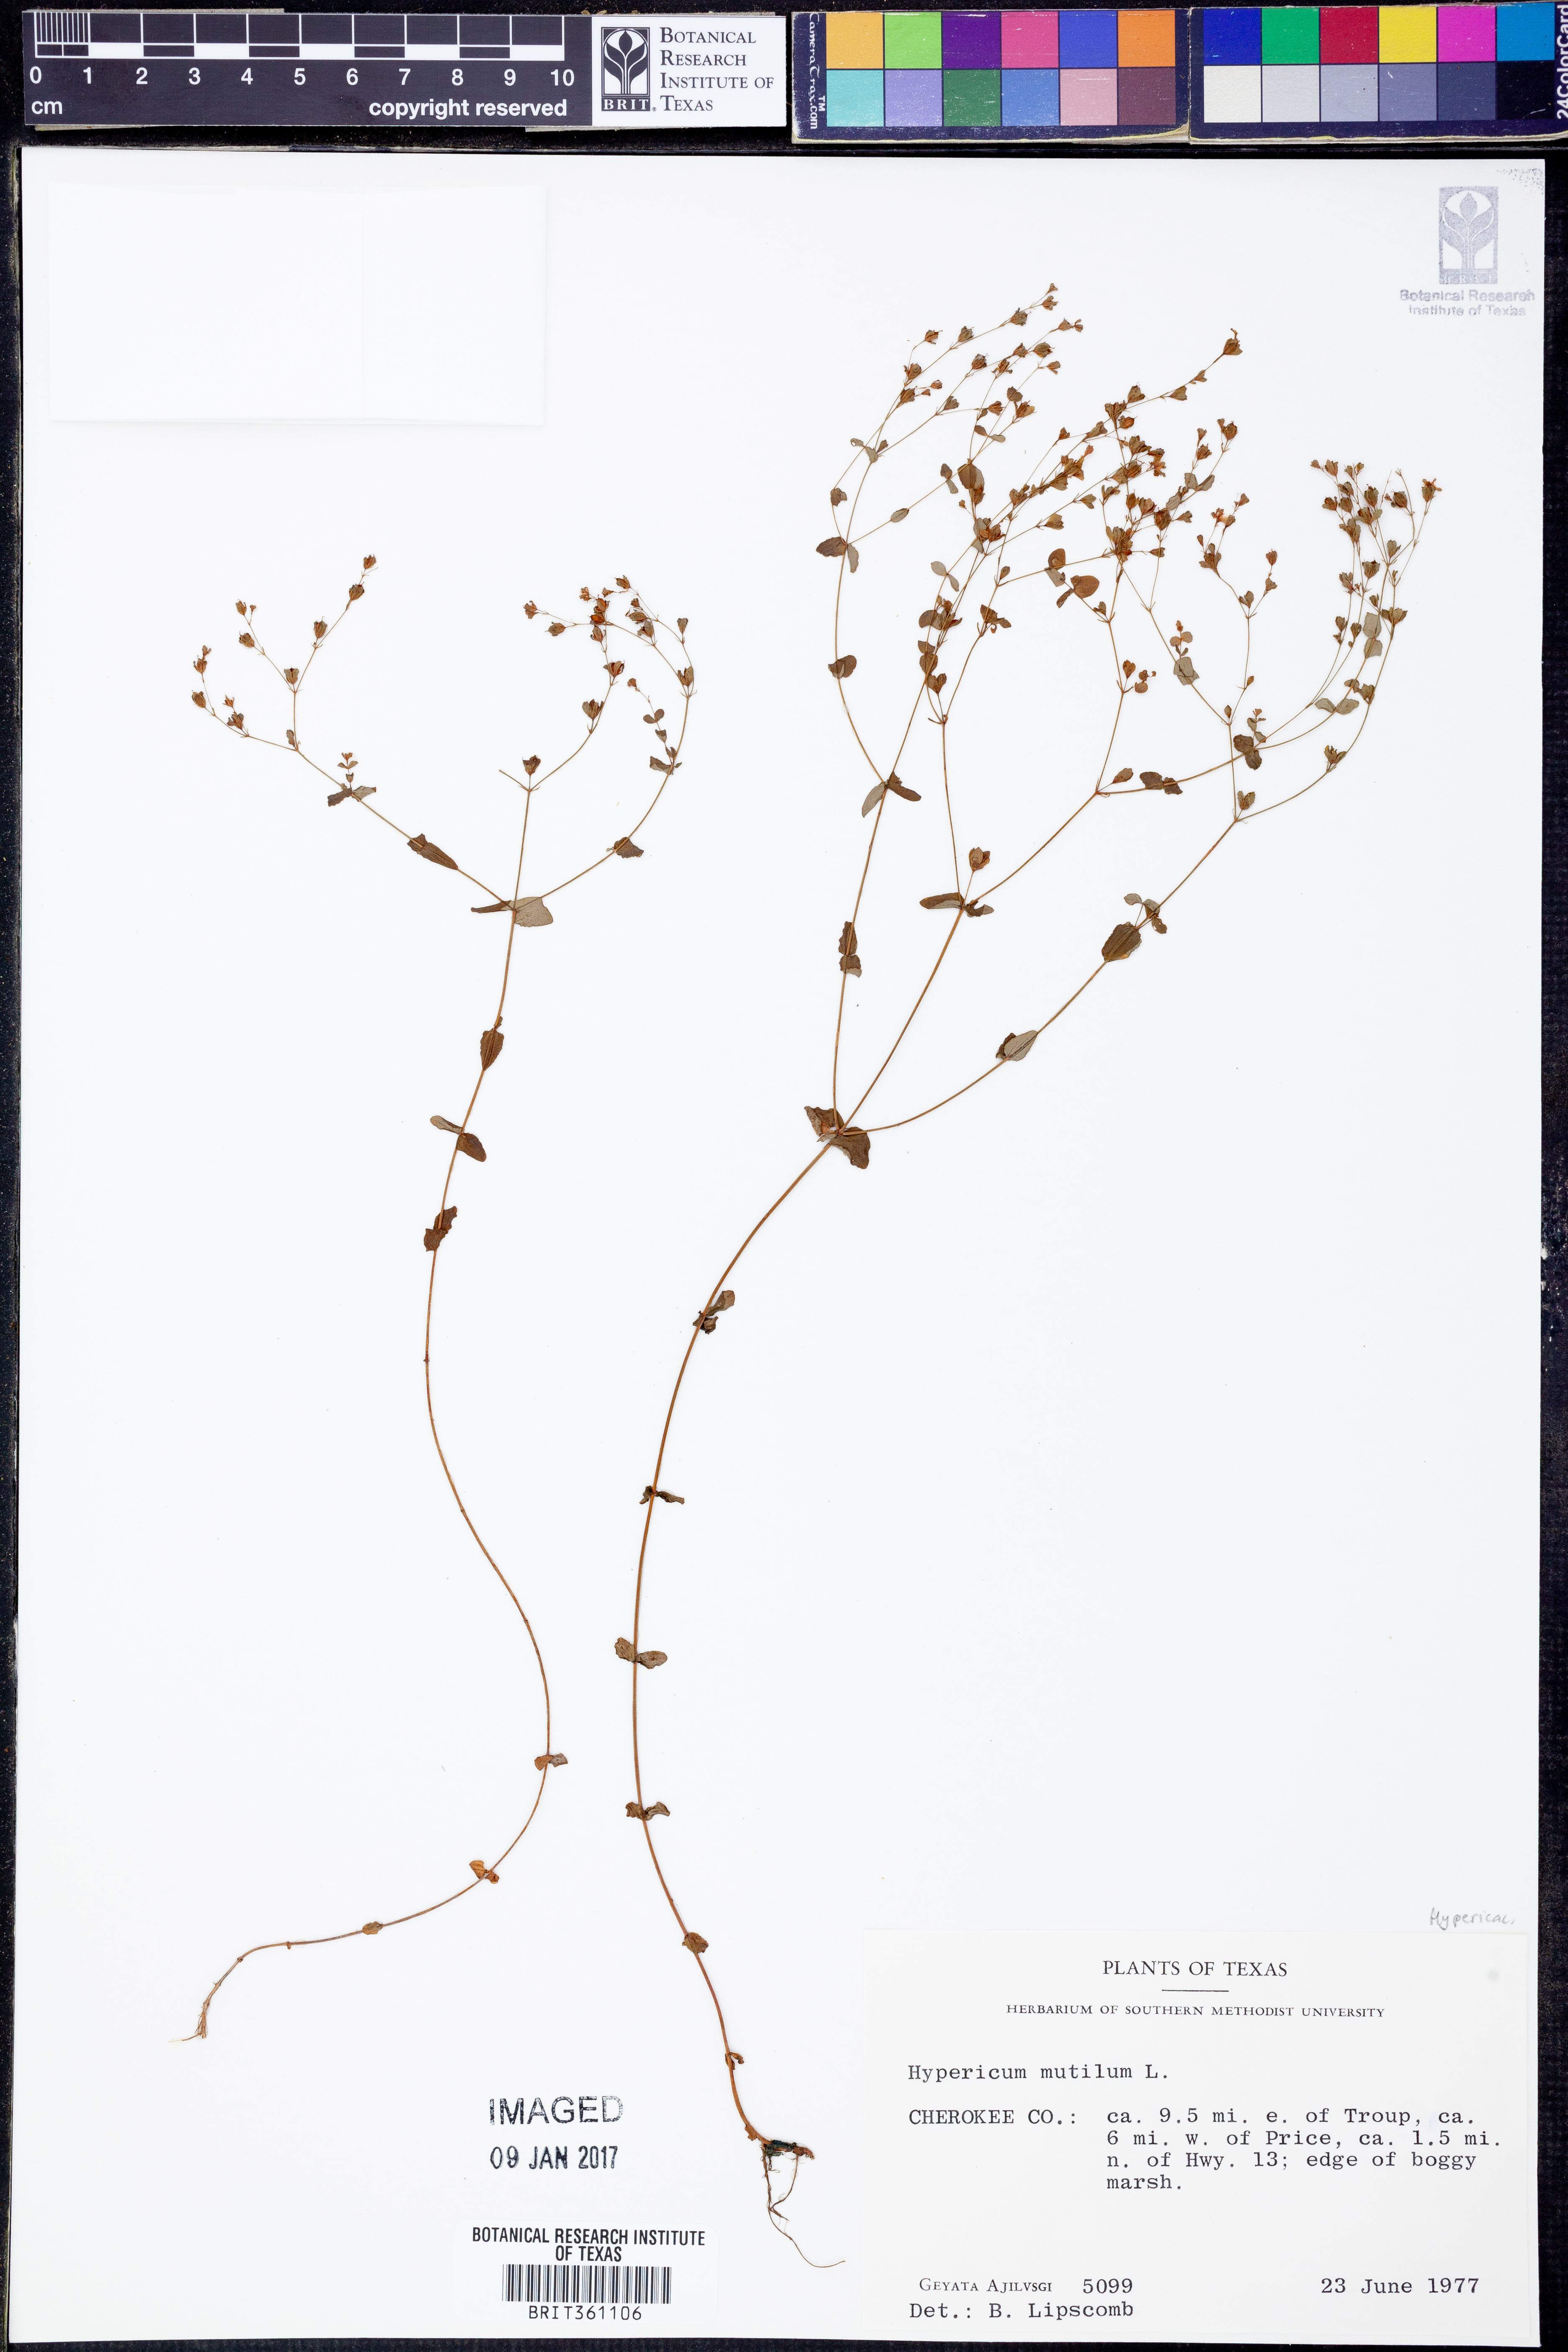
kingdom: Plantae
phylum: Tracheophyta
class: Magnoliopsida
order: Malpighiales
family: Hypericaceae
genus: Hypericum
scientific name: Hypericum mutilum
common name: Dwarf st. john's-wort
